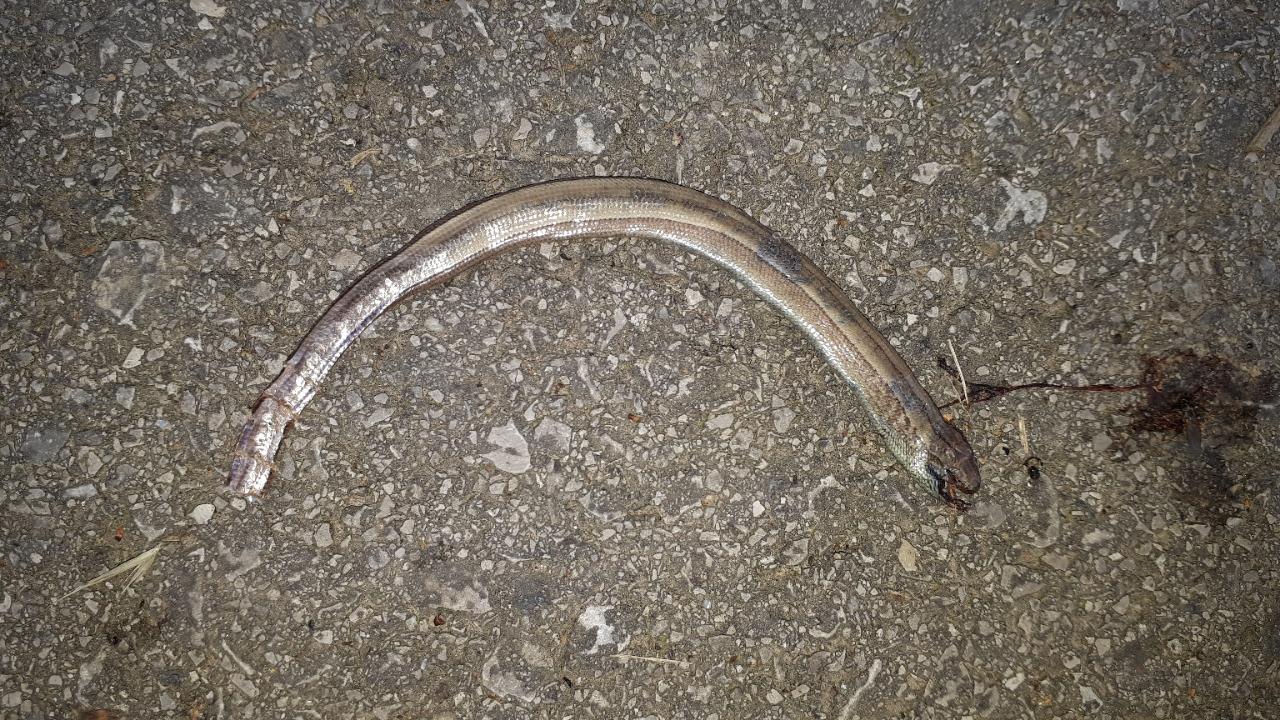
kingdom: Animalia
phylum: Chordata
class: Squamata
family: Anguidae
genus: Anguis
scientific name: Anguis fragilis
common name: Slow worm
